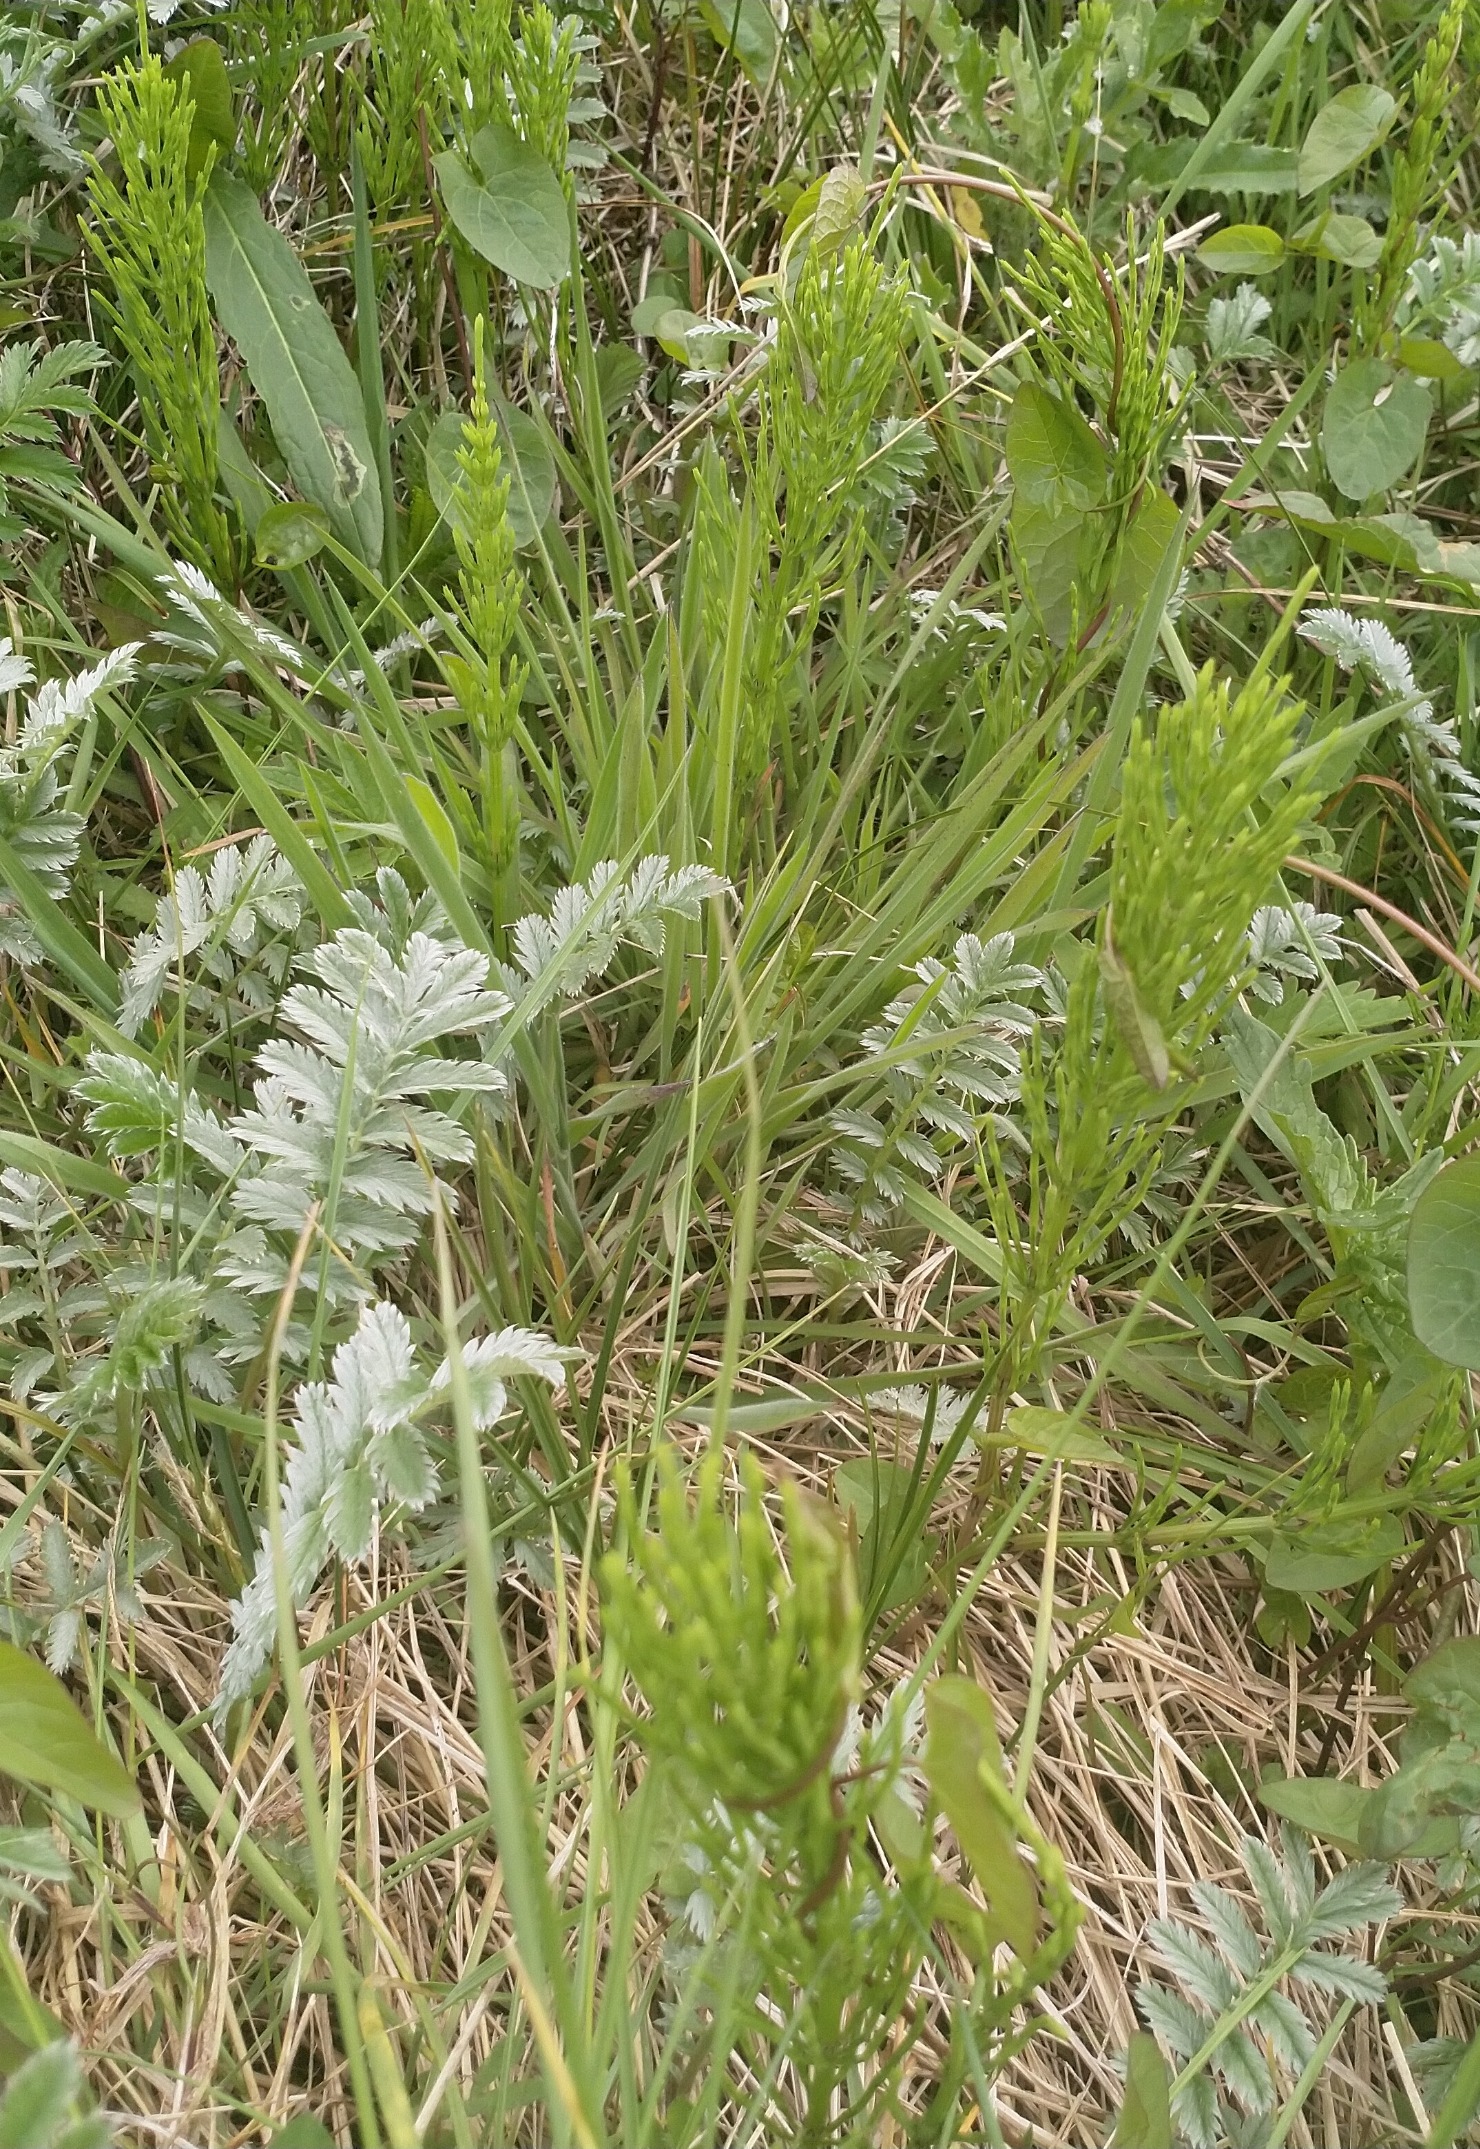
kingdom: Plantae
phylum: Tracheophyta
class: Magnoliopsida
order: Rosales
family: Rosaceae
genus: Argentina
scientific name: Argentina anserina
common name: Gåsepotentil
